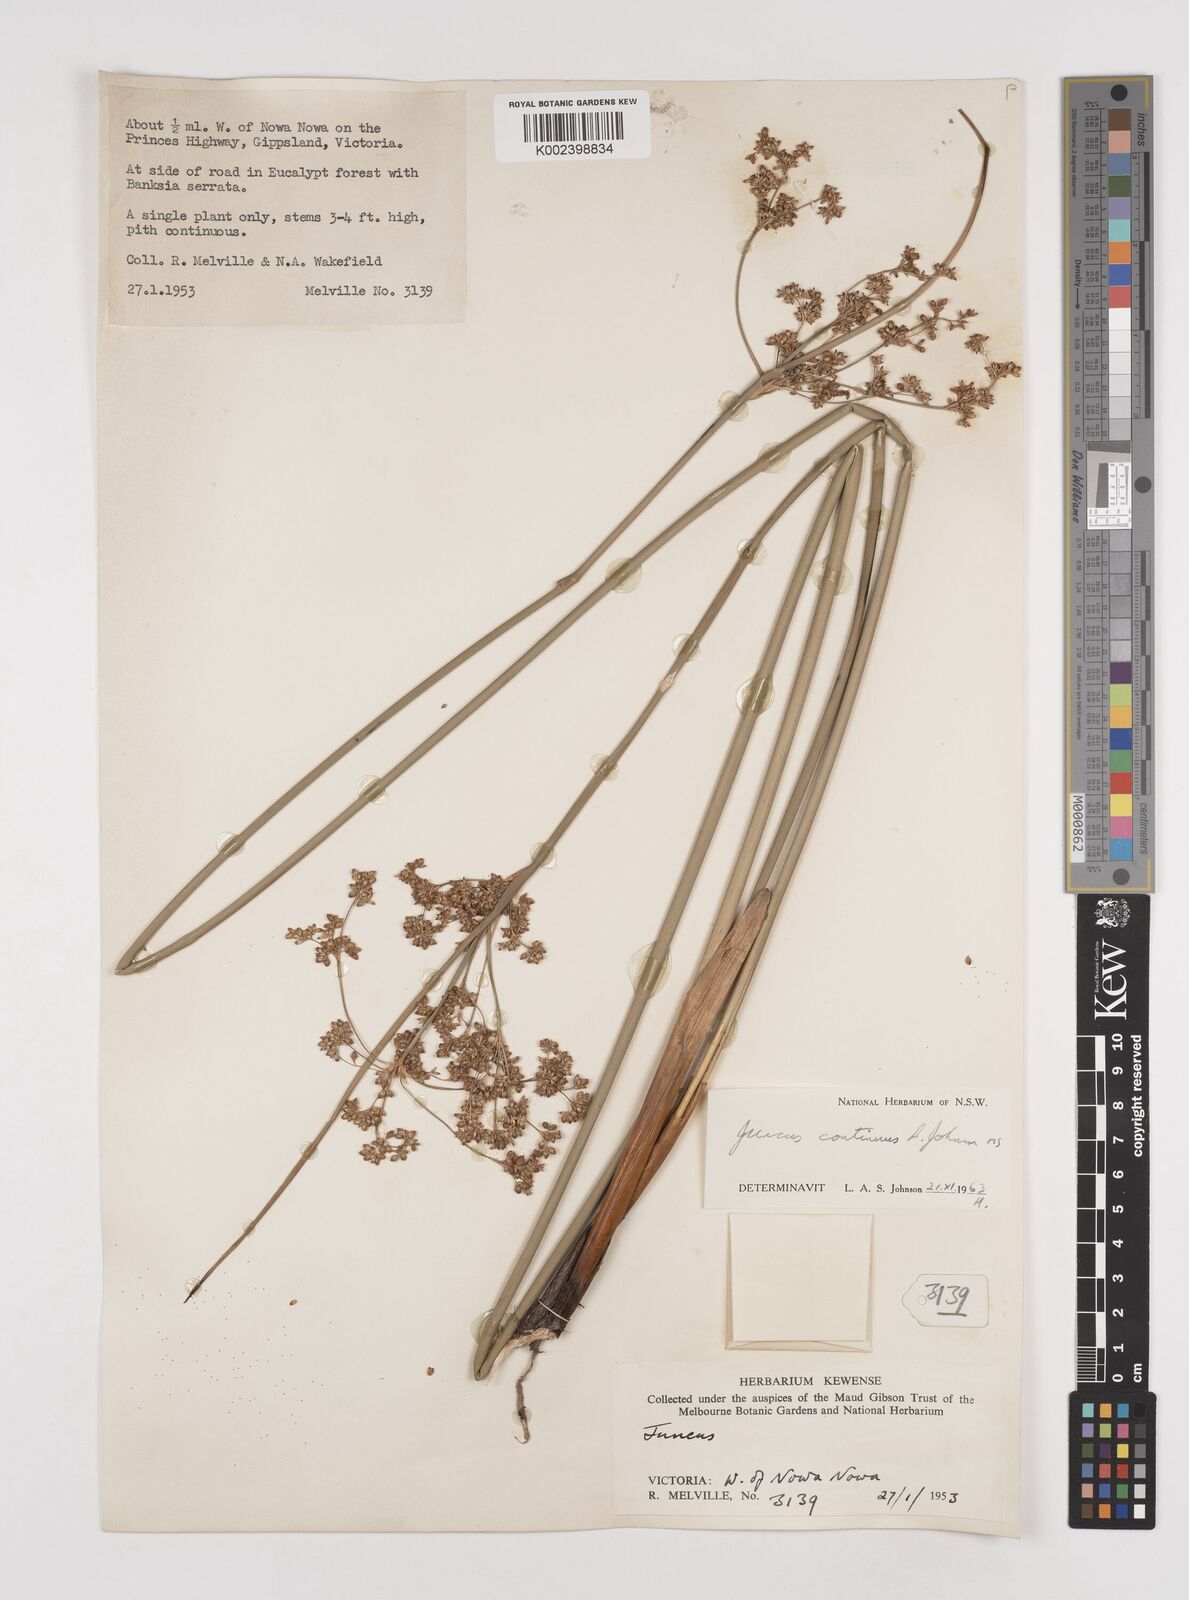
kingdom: Plantae
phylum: Tracheophyta
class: Liliopsida
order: Poales
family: Juncaceae
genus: Juncus
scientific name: Juncus continuus
